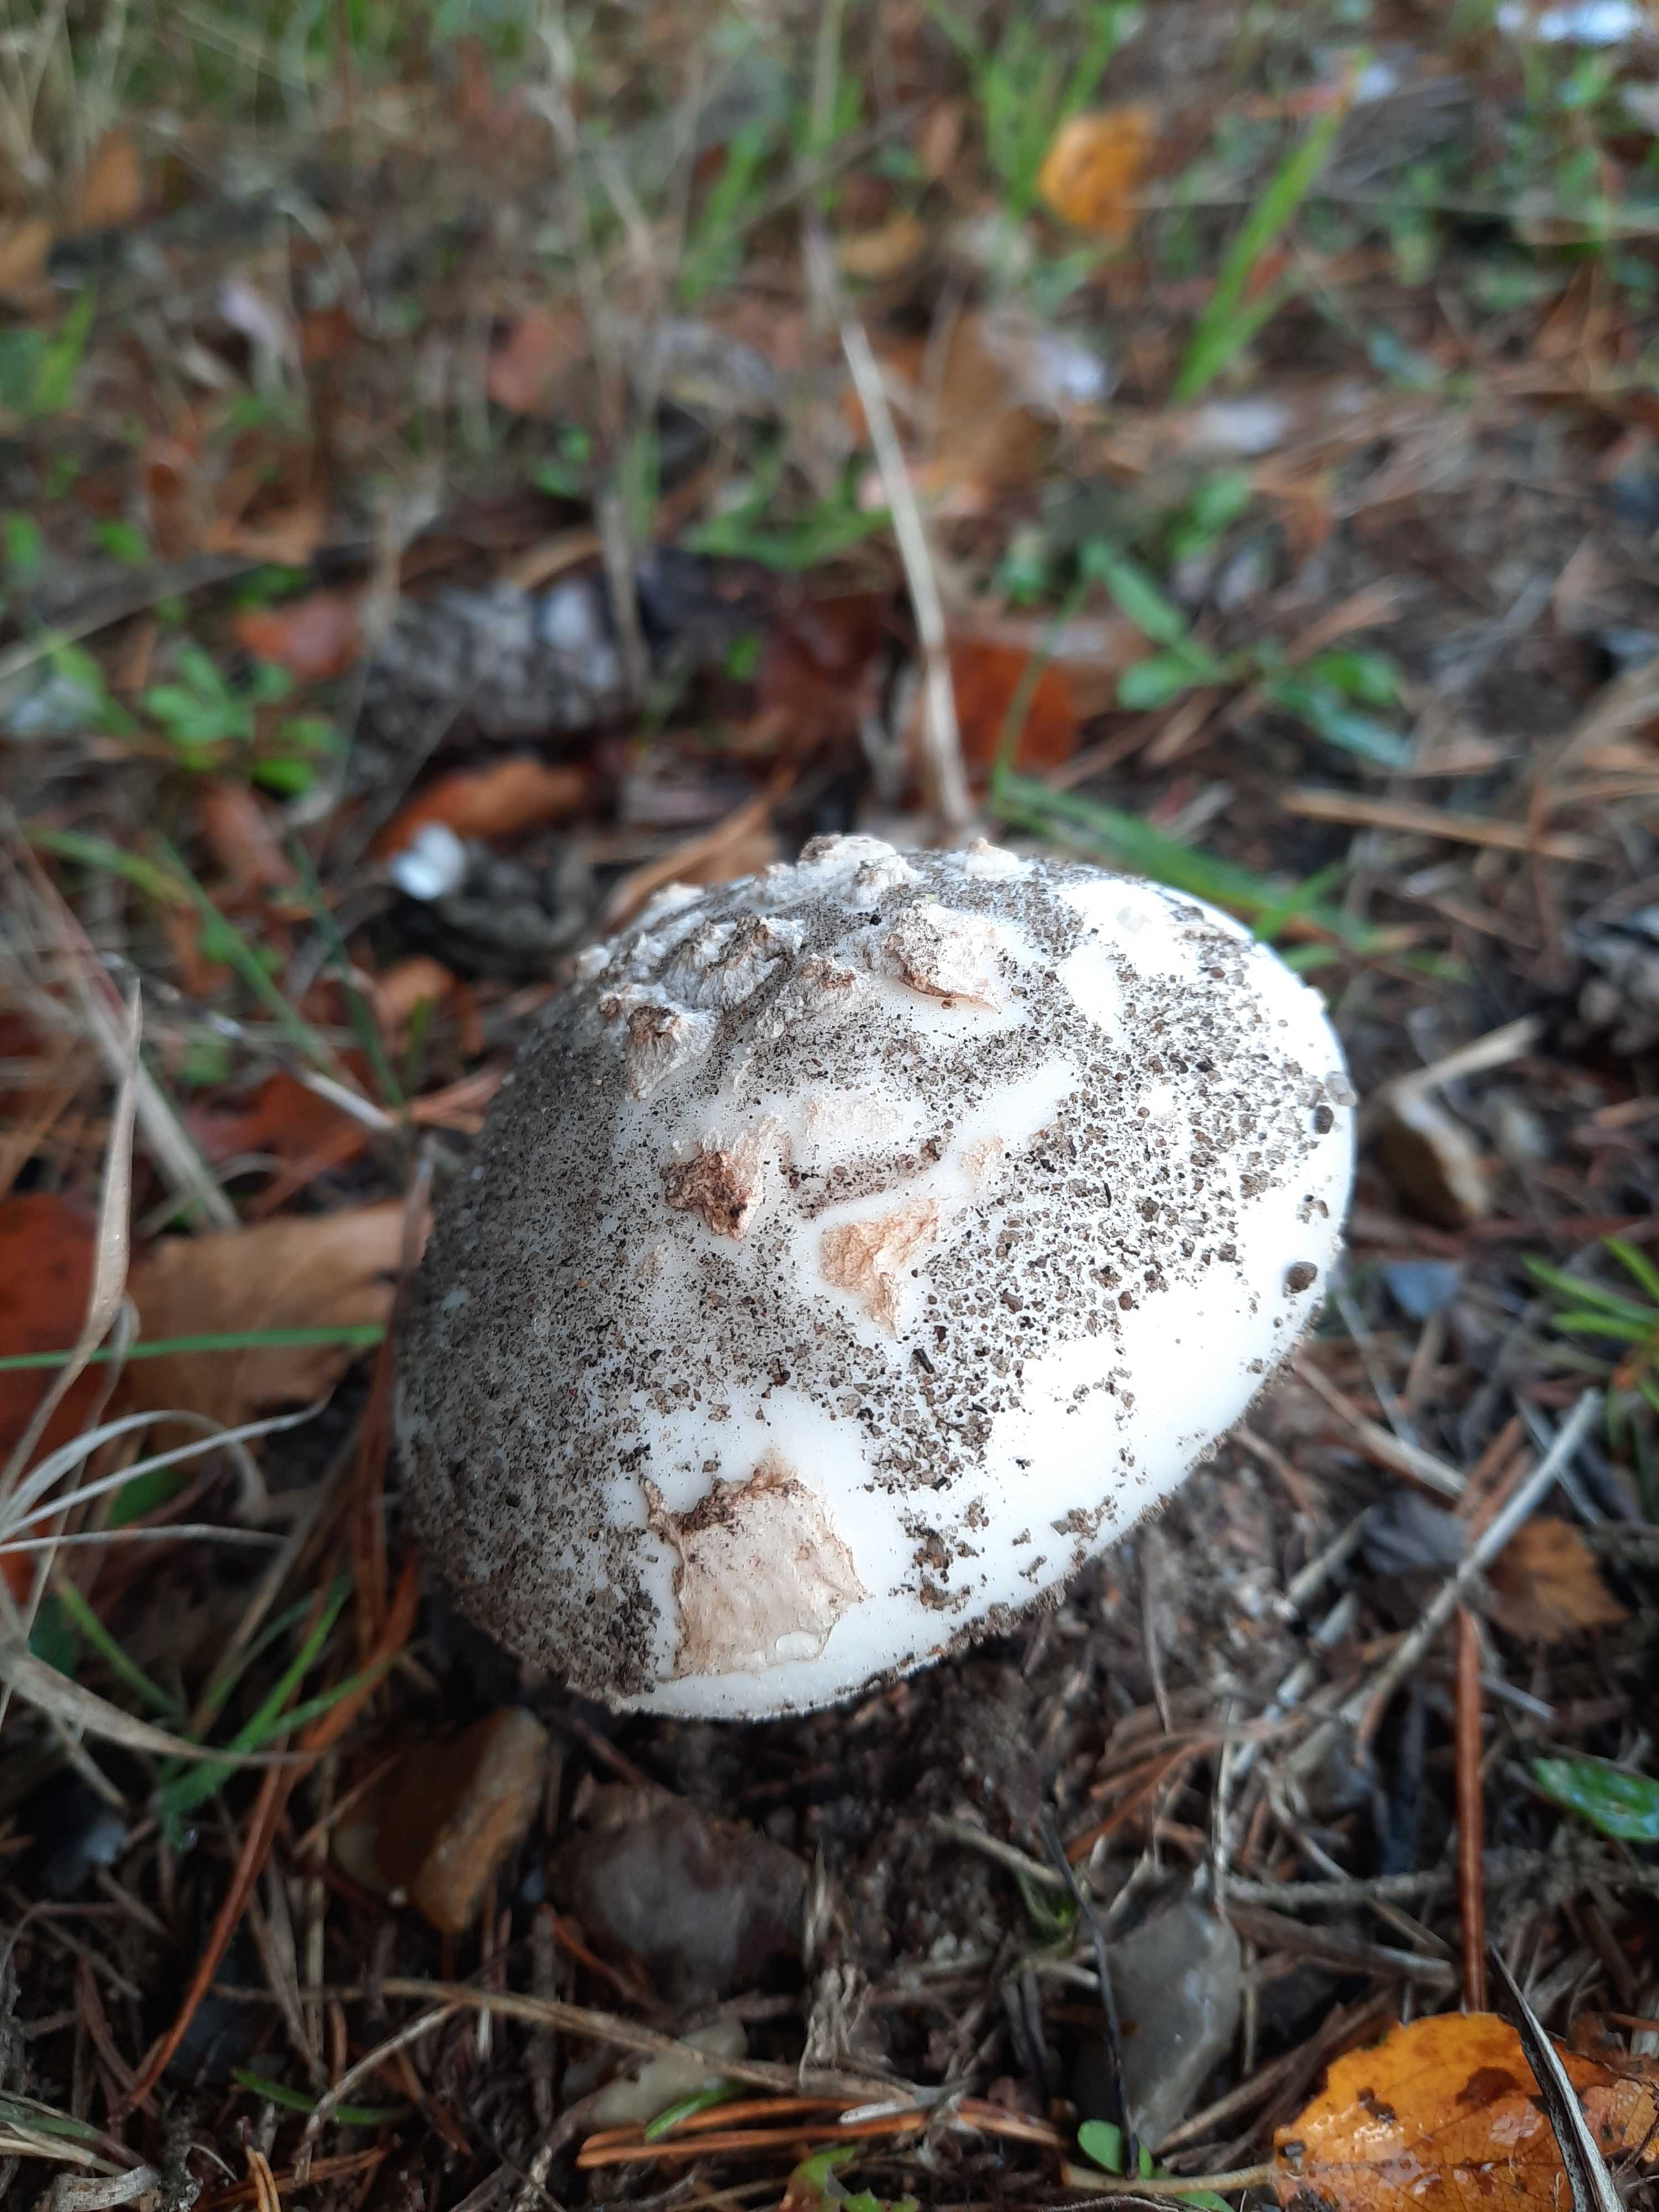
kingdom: Fungi
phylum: Basidiomycota
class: Agaricomycetes
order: Agaricales
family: Amanitaceae
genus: Amanita
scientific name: Amanita citrina
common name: False death-cap
